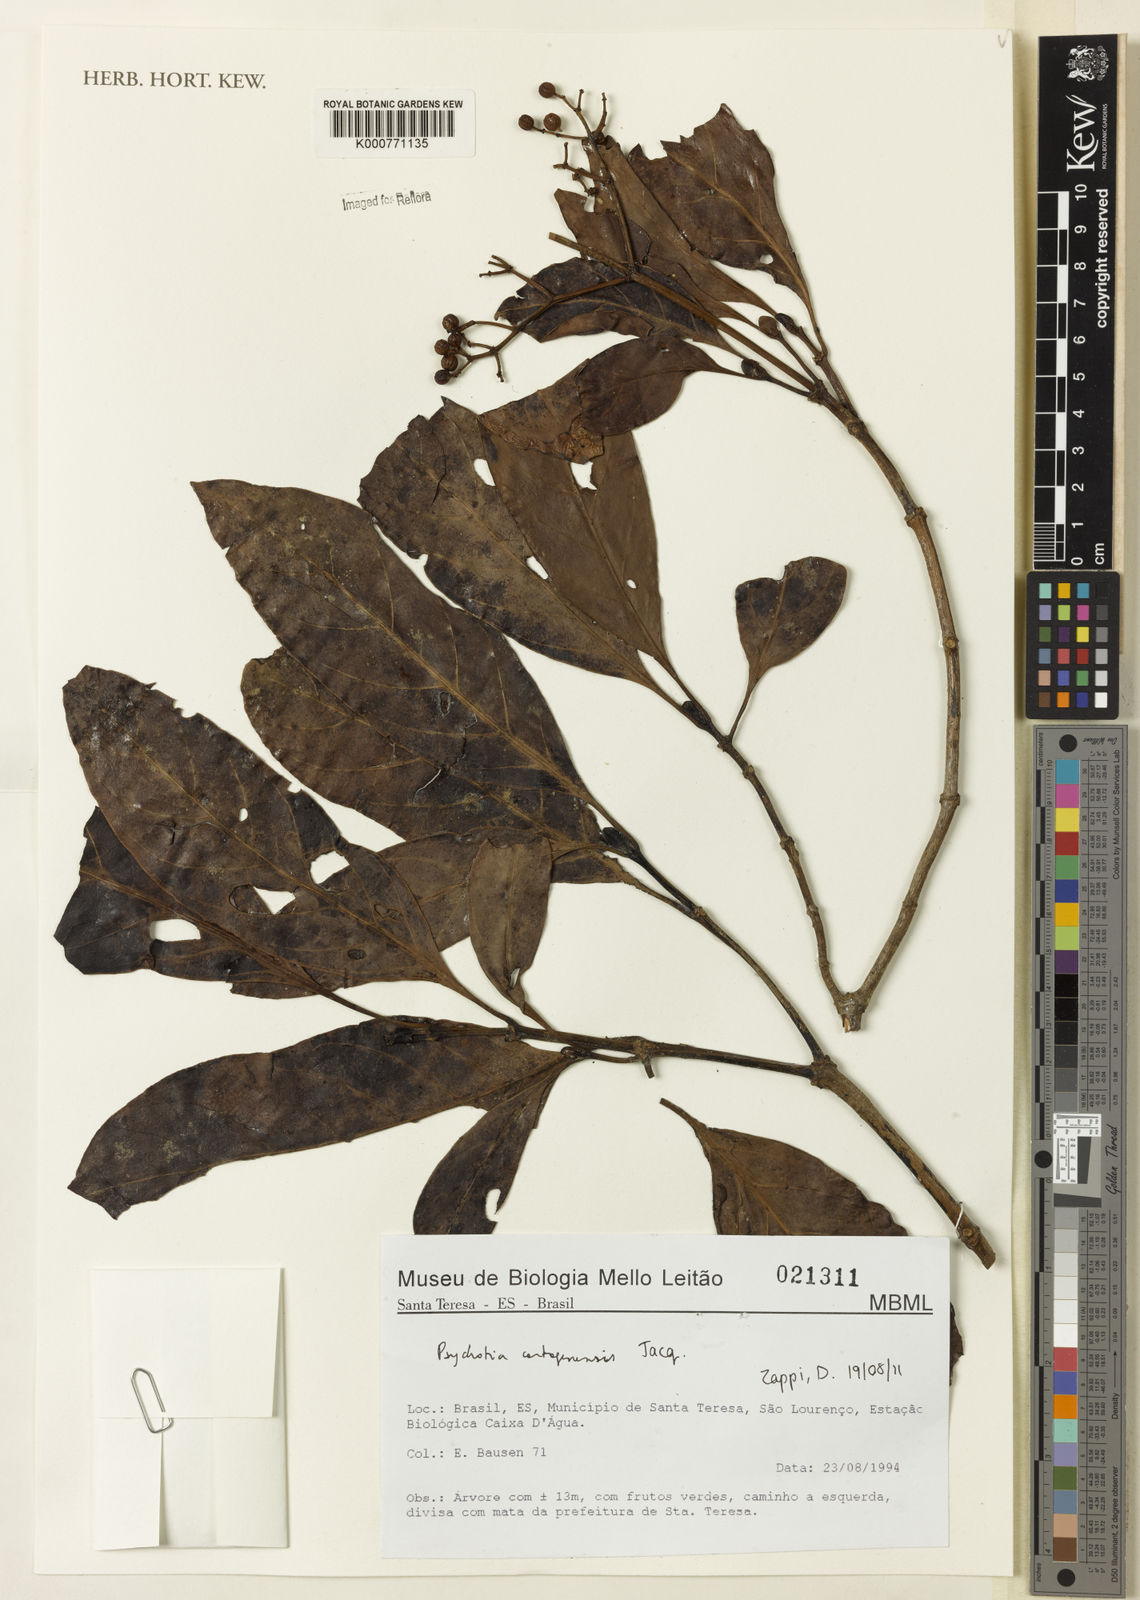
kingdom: Plantae
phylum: Tracheophyta
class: Magnoliopsida
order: Gentianales
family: Rubiaceae
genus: Psychotria
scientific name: Psychotria carthagenensis
